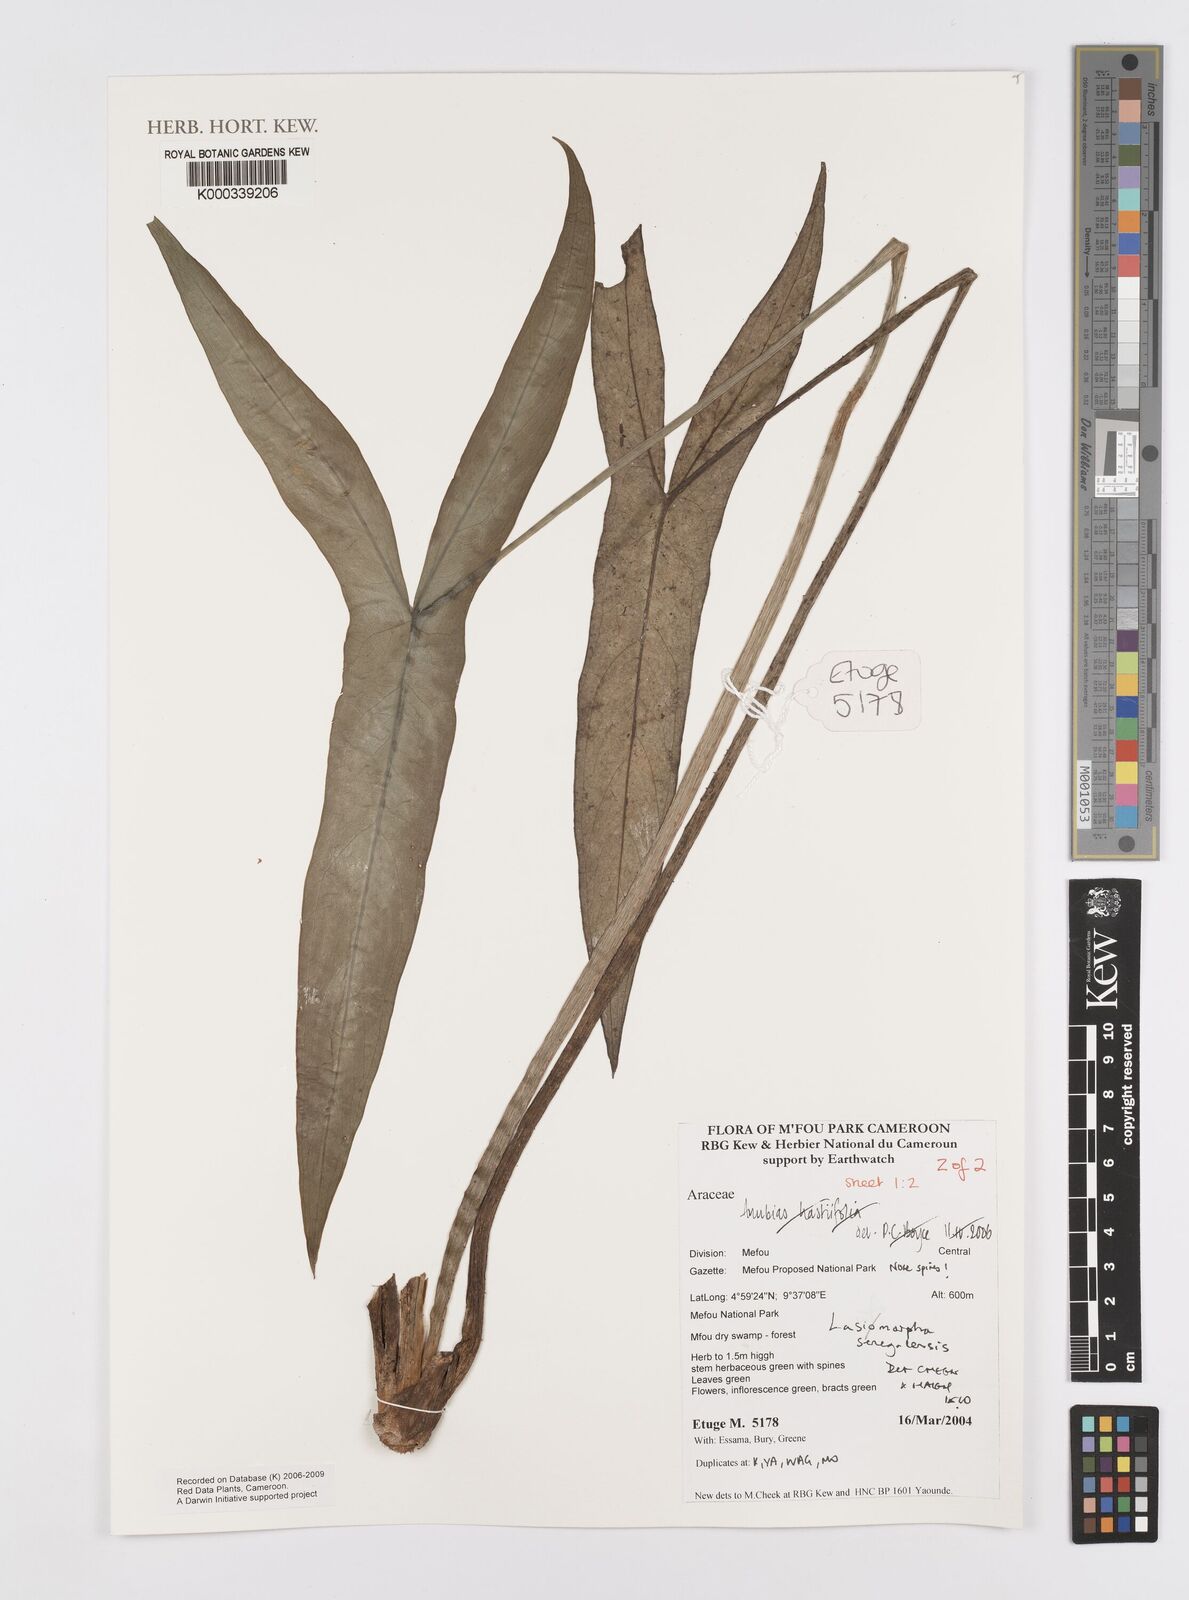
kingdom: Plantae
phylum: Tracheophyta
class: Liliopsida
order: Alismatales
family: Araceae
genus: Lasimorpha
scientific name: Lasimorpha senegalensis
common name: Swamp arum
